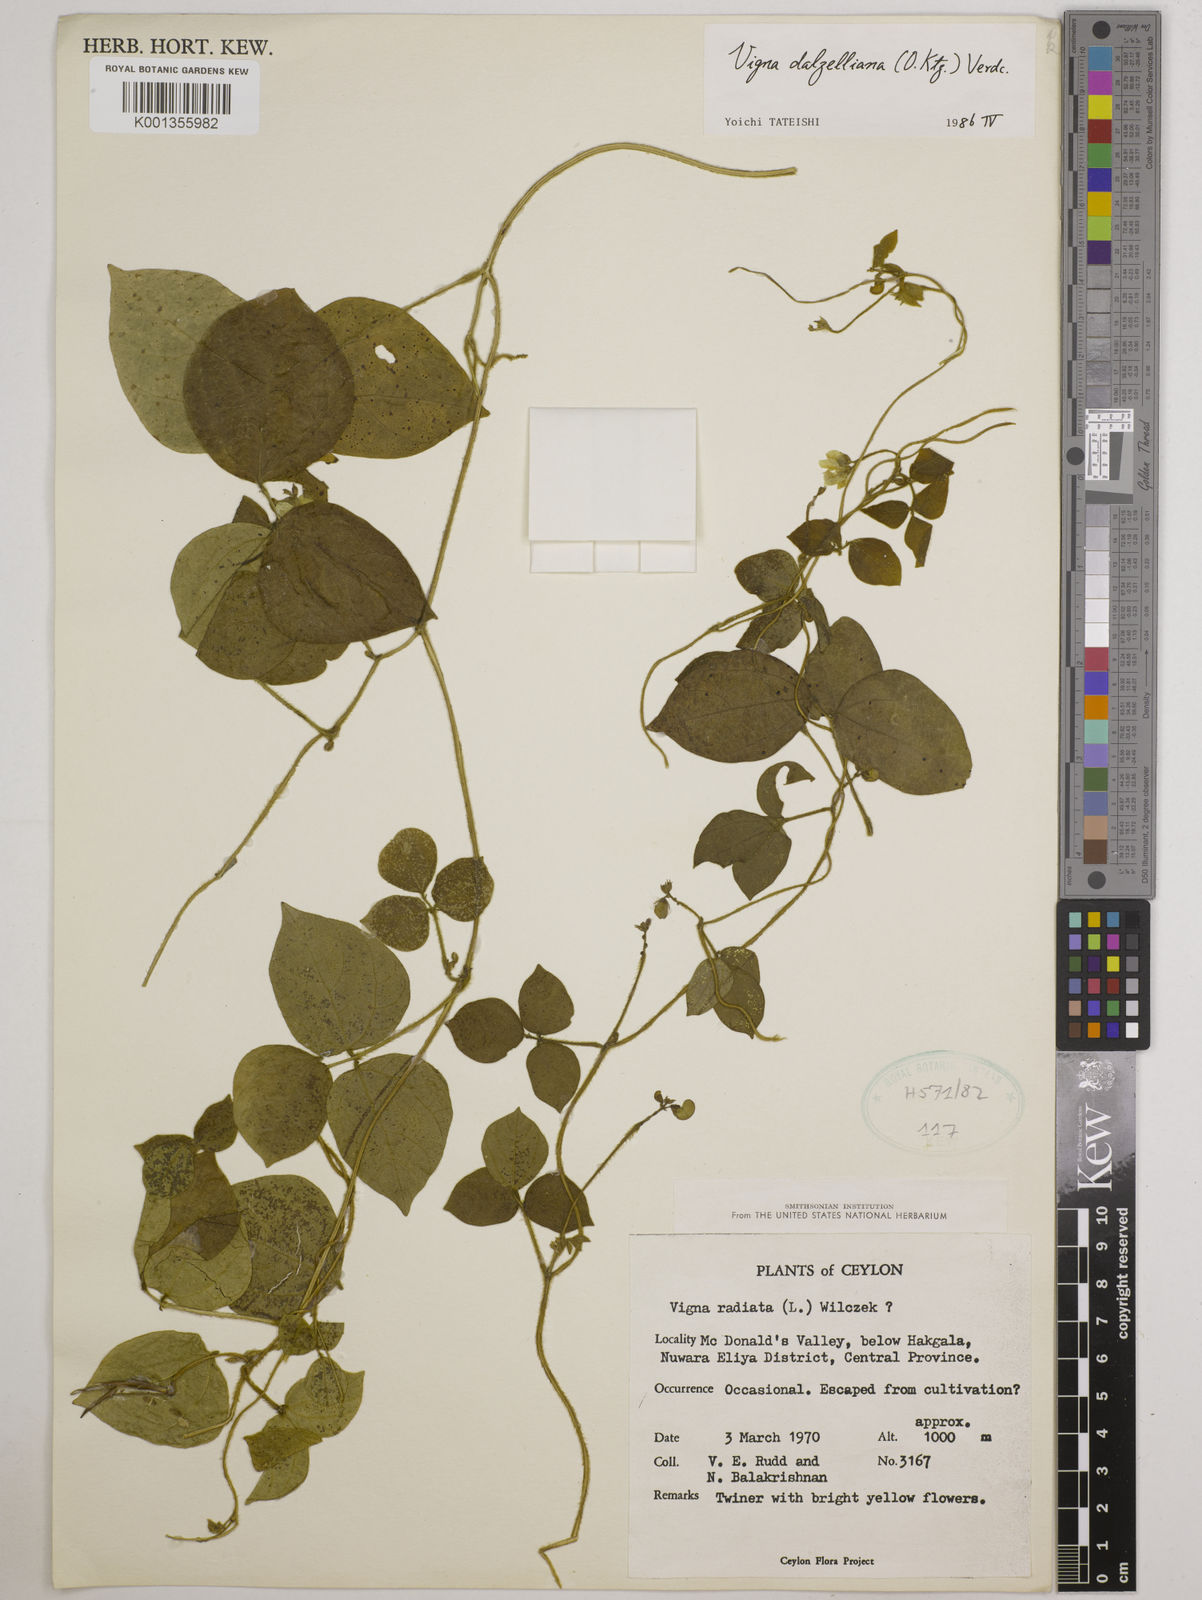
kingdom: Plantae
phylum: Tracheophyta
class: Magnoliopsida
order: Fabales
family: Fabaceae
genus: Vigna
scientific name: Vigna dalzelliana
